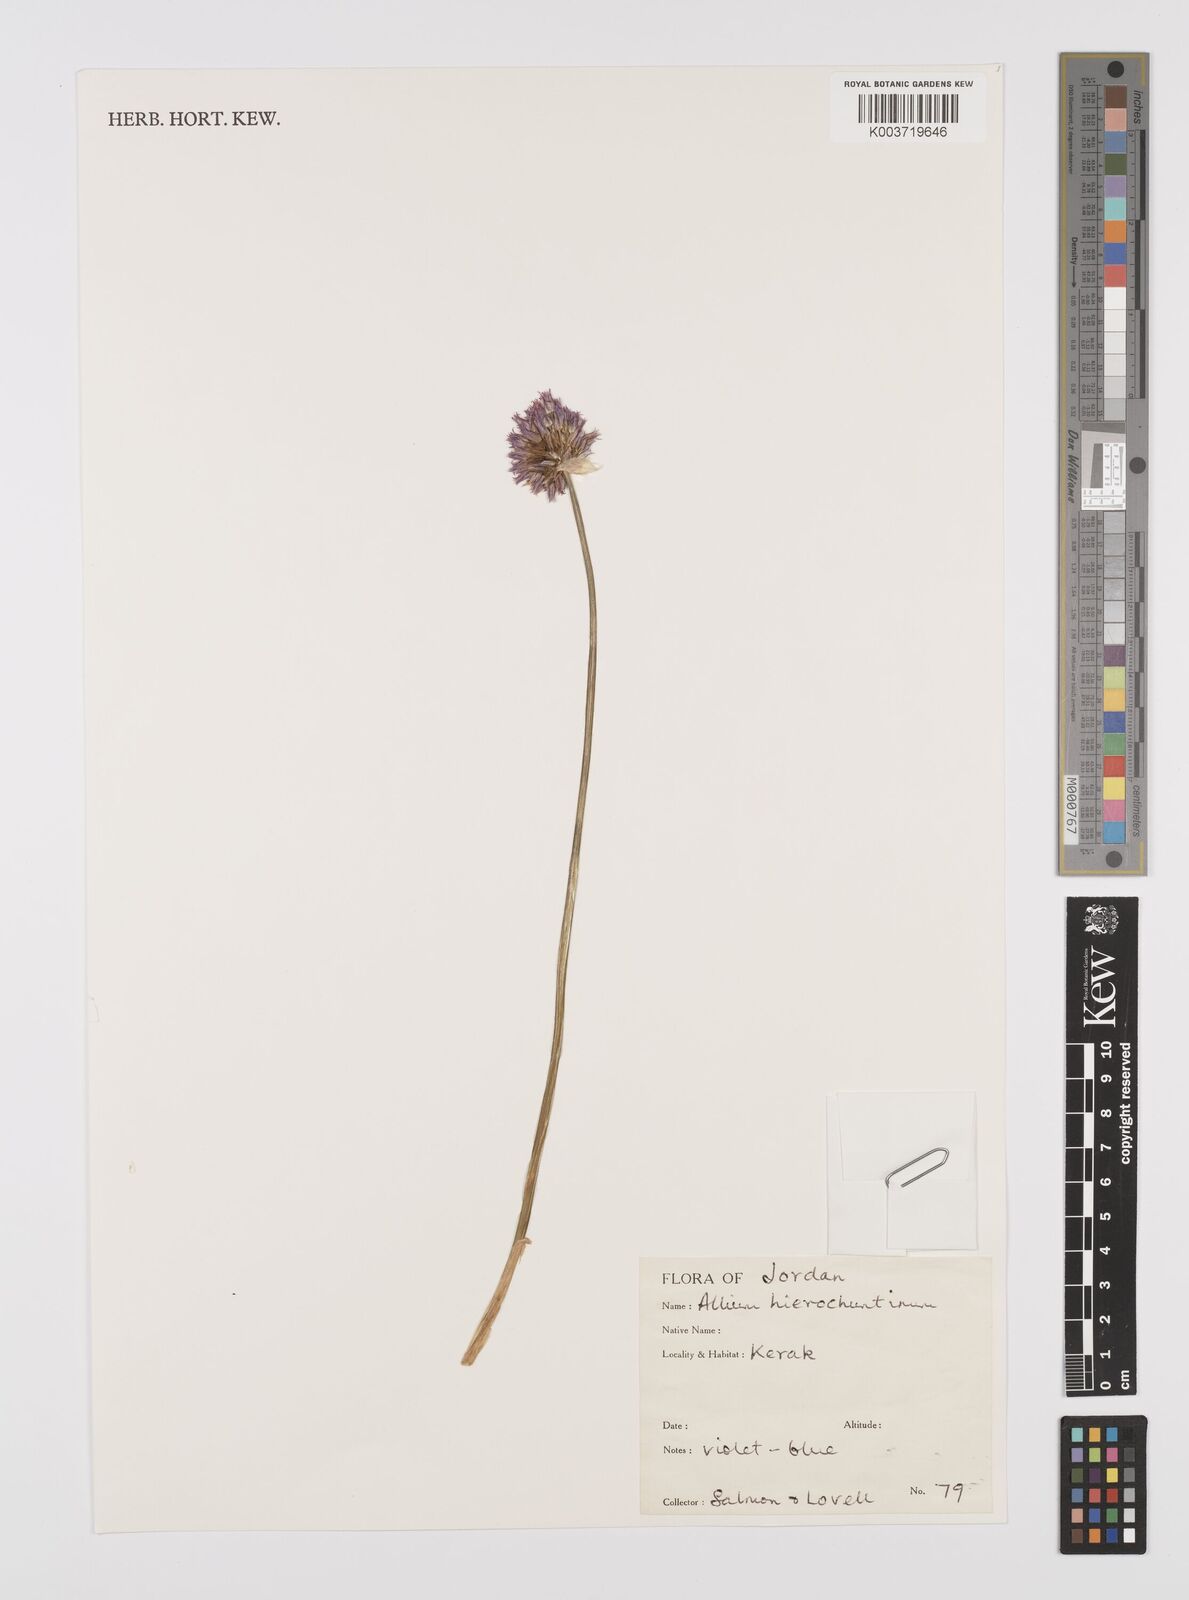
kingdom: Plantae
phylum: Tracheophyta
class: Liliopsida
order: Asparagales
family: Amaryllidaceae
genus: Allium
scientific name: Allium ascalonicum
